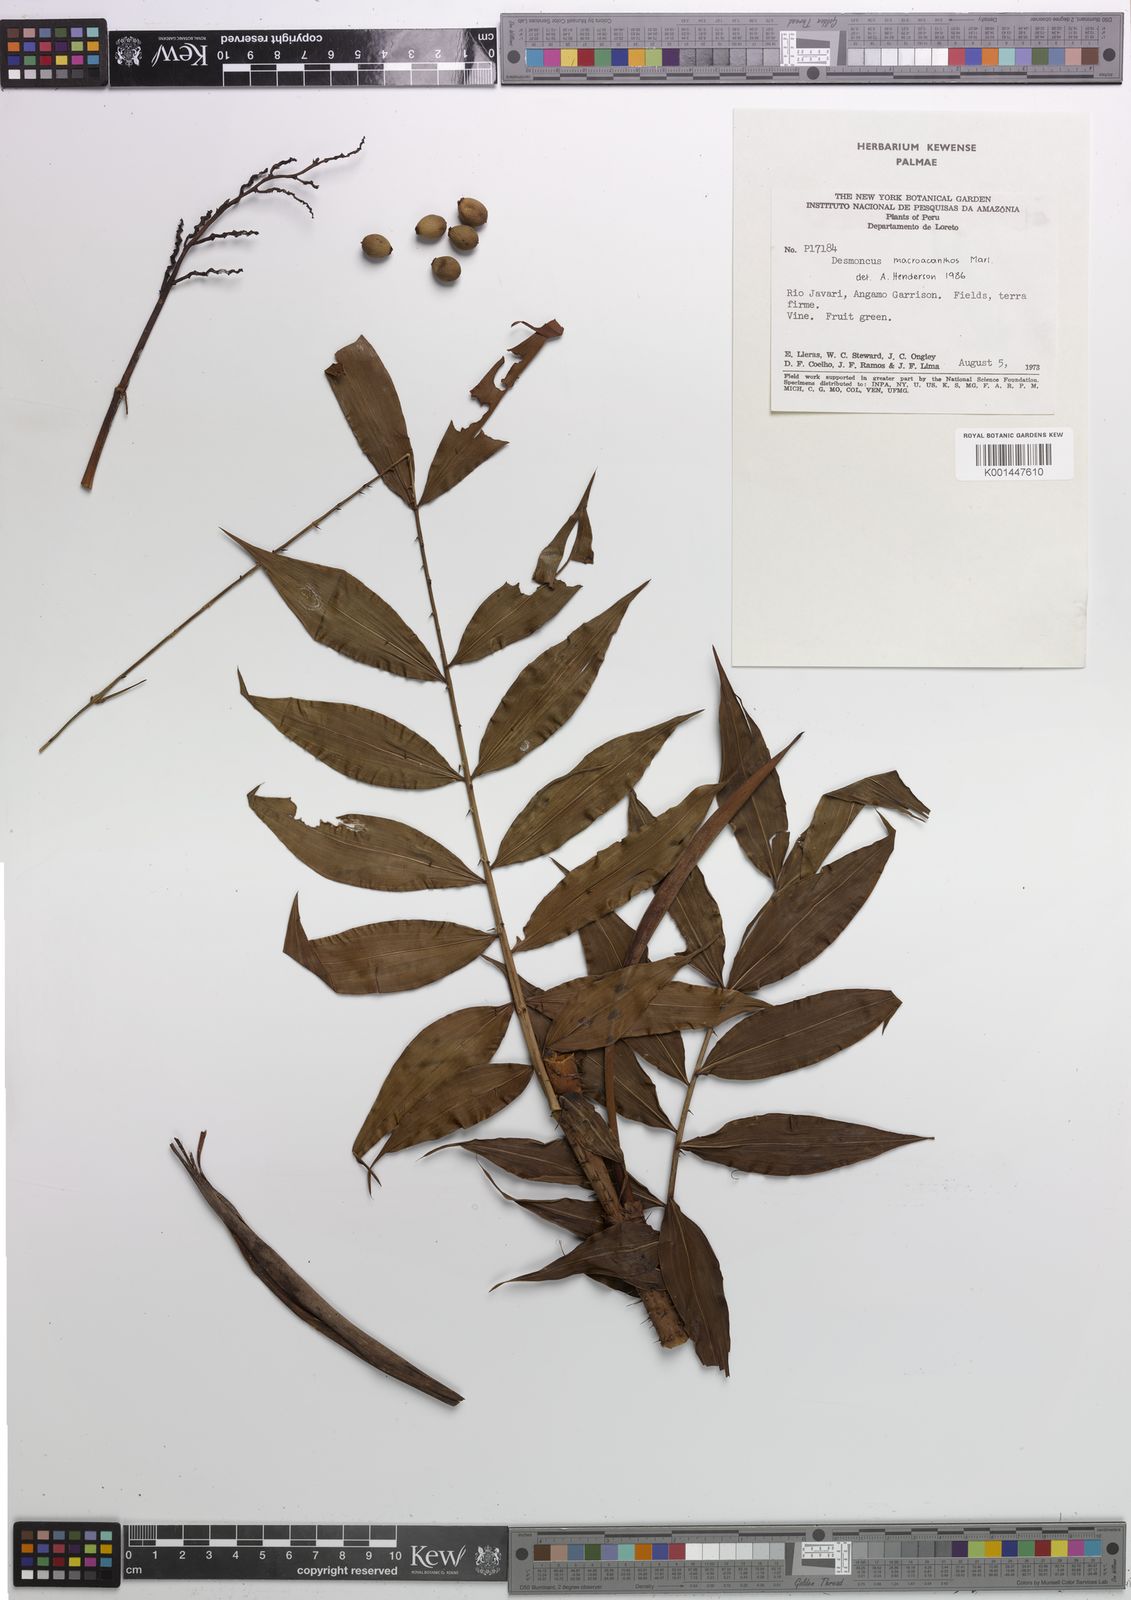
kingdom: Plantae
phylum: Tracheophyta
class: Liliopsida
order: Arecales
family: Arecaceae
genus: Desmoncus
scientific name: Desmoncus polyacanthos
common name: Suriname bramble palm
